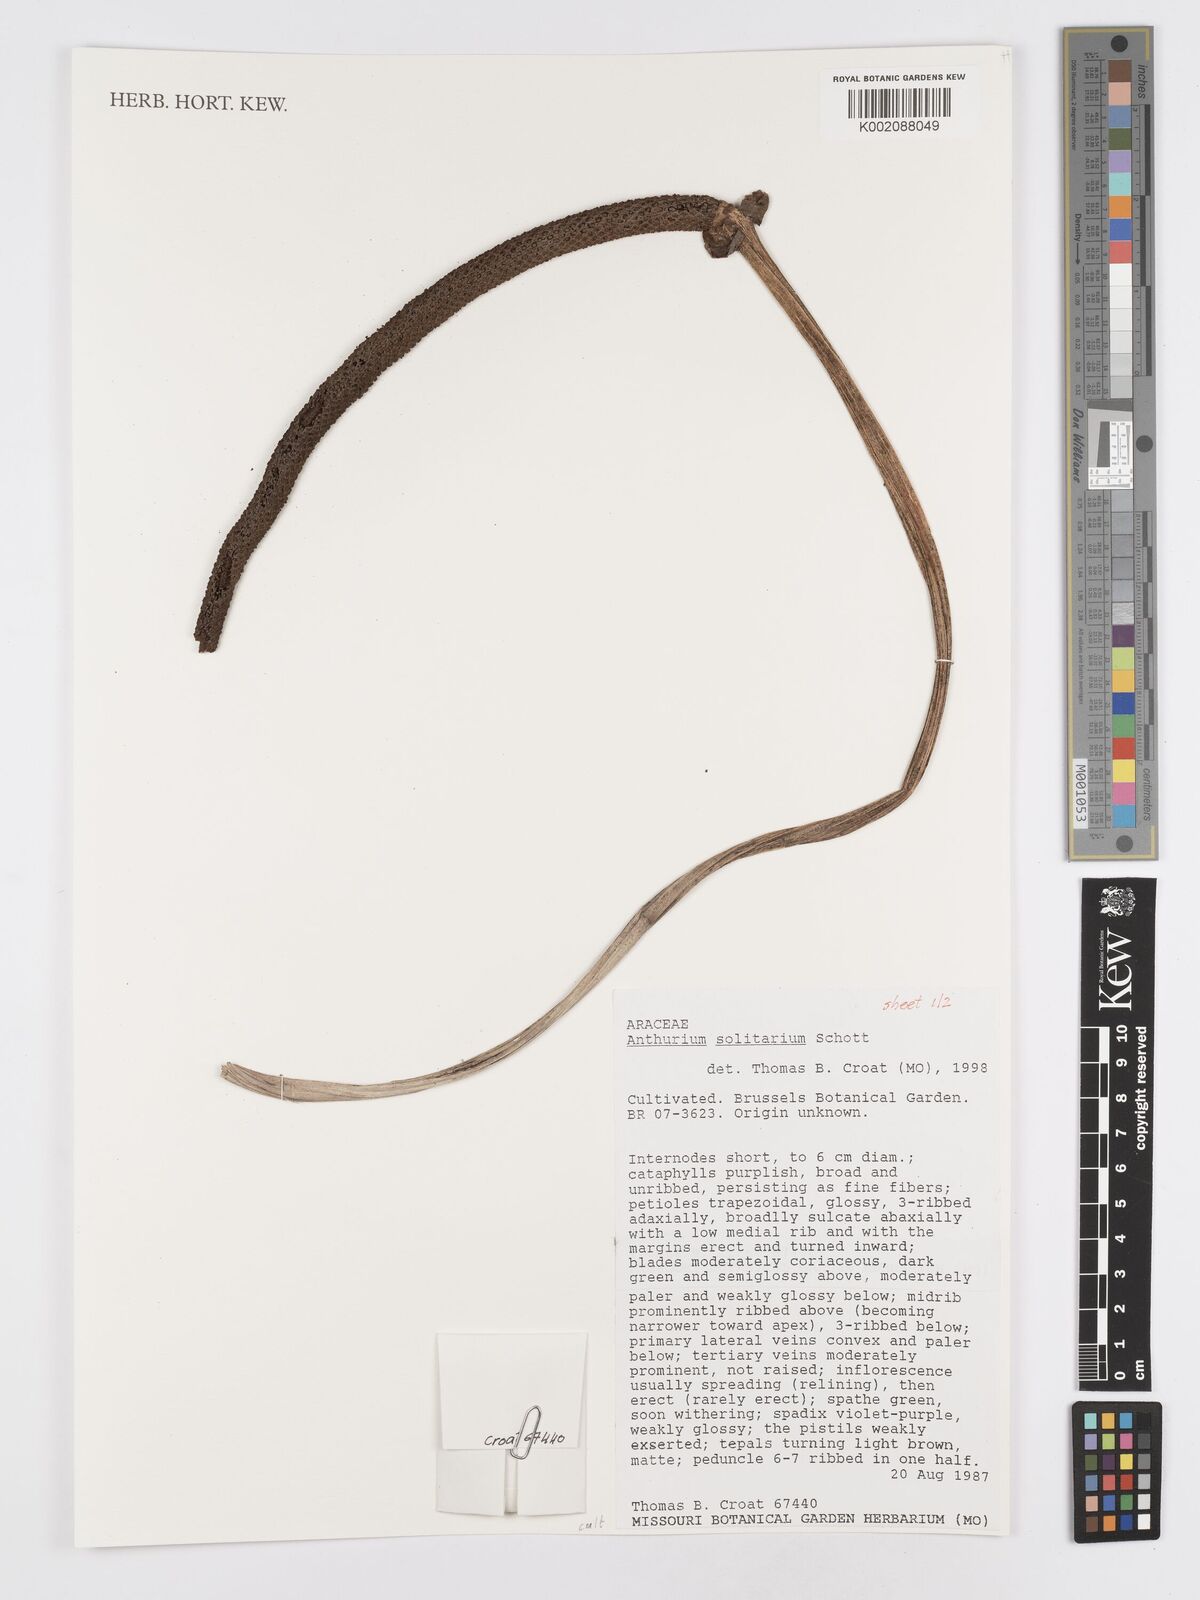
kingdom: Plantae
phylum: Tracheophyta
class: Liliopsida
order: Alismatales
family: Araceae
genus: Anthurium
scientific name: Anthurium solitarium
